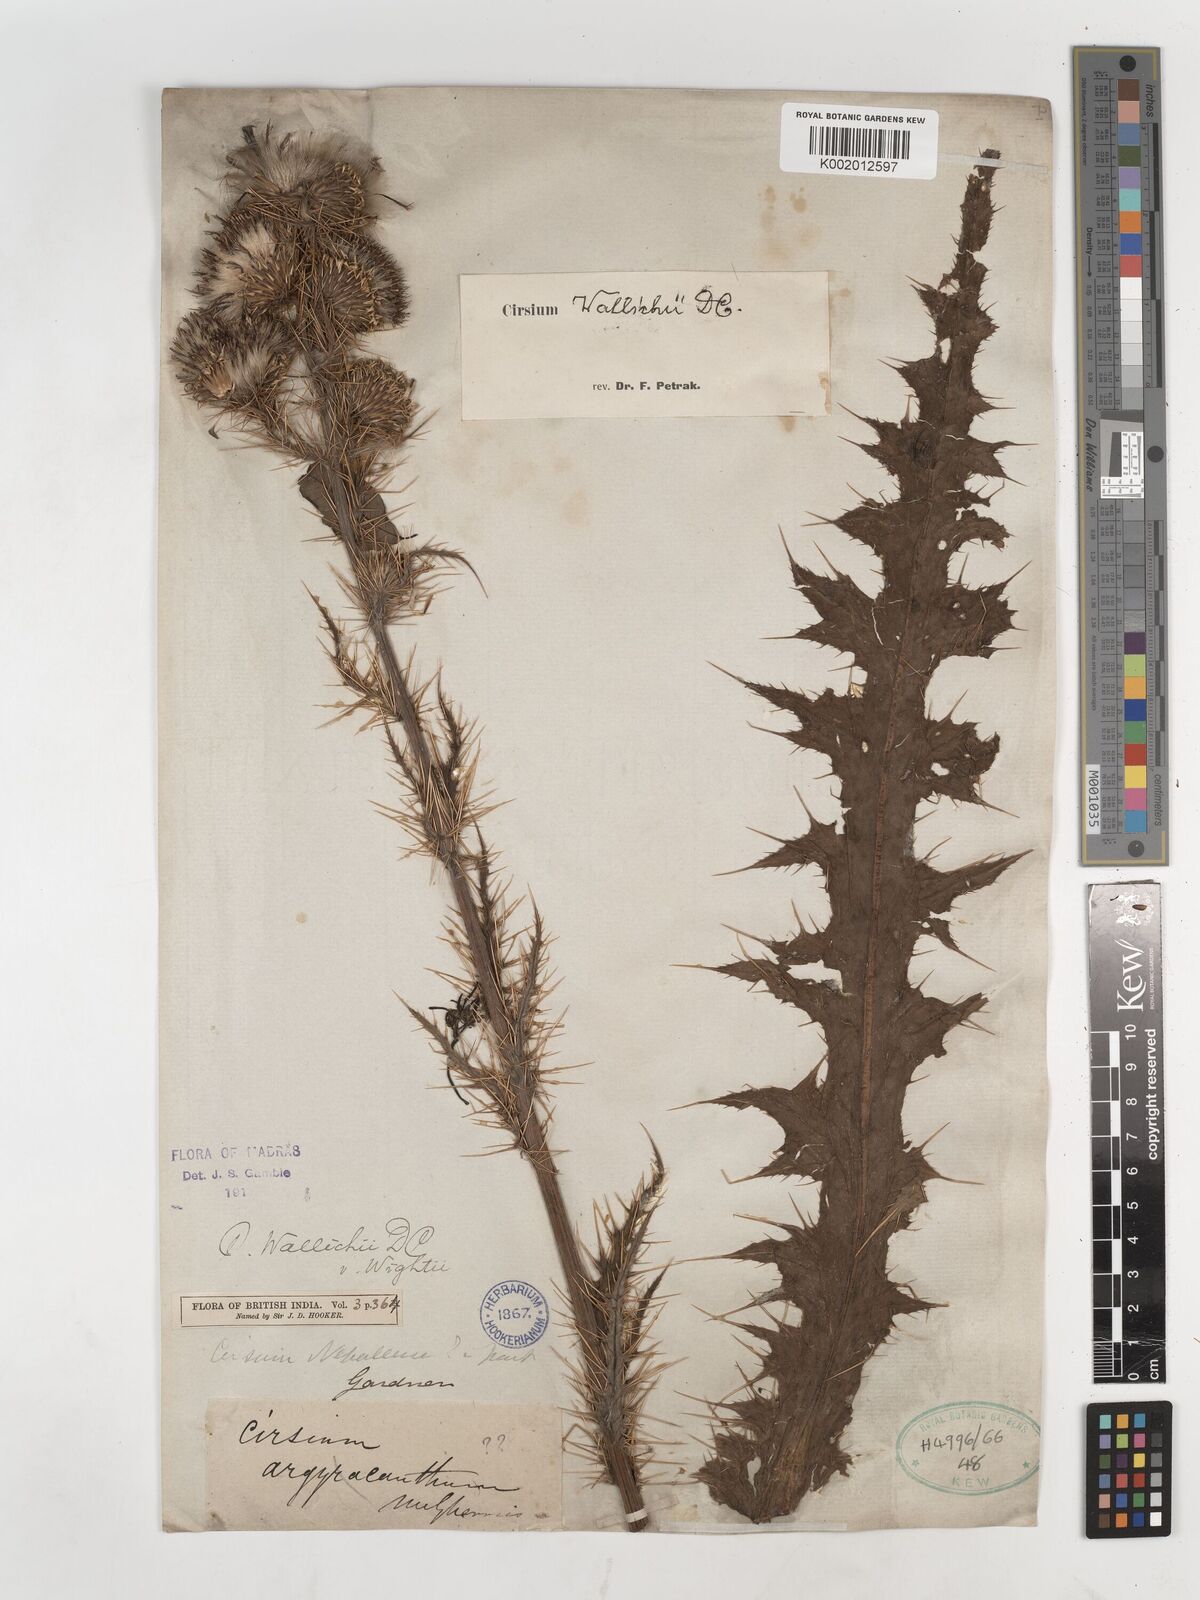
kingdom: Plantae
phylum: Tracheophyta
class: Magnoliopsida
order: Asterales
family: Asteraceae
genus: Cirsium
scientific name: Cirsium wallichii
